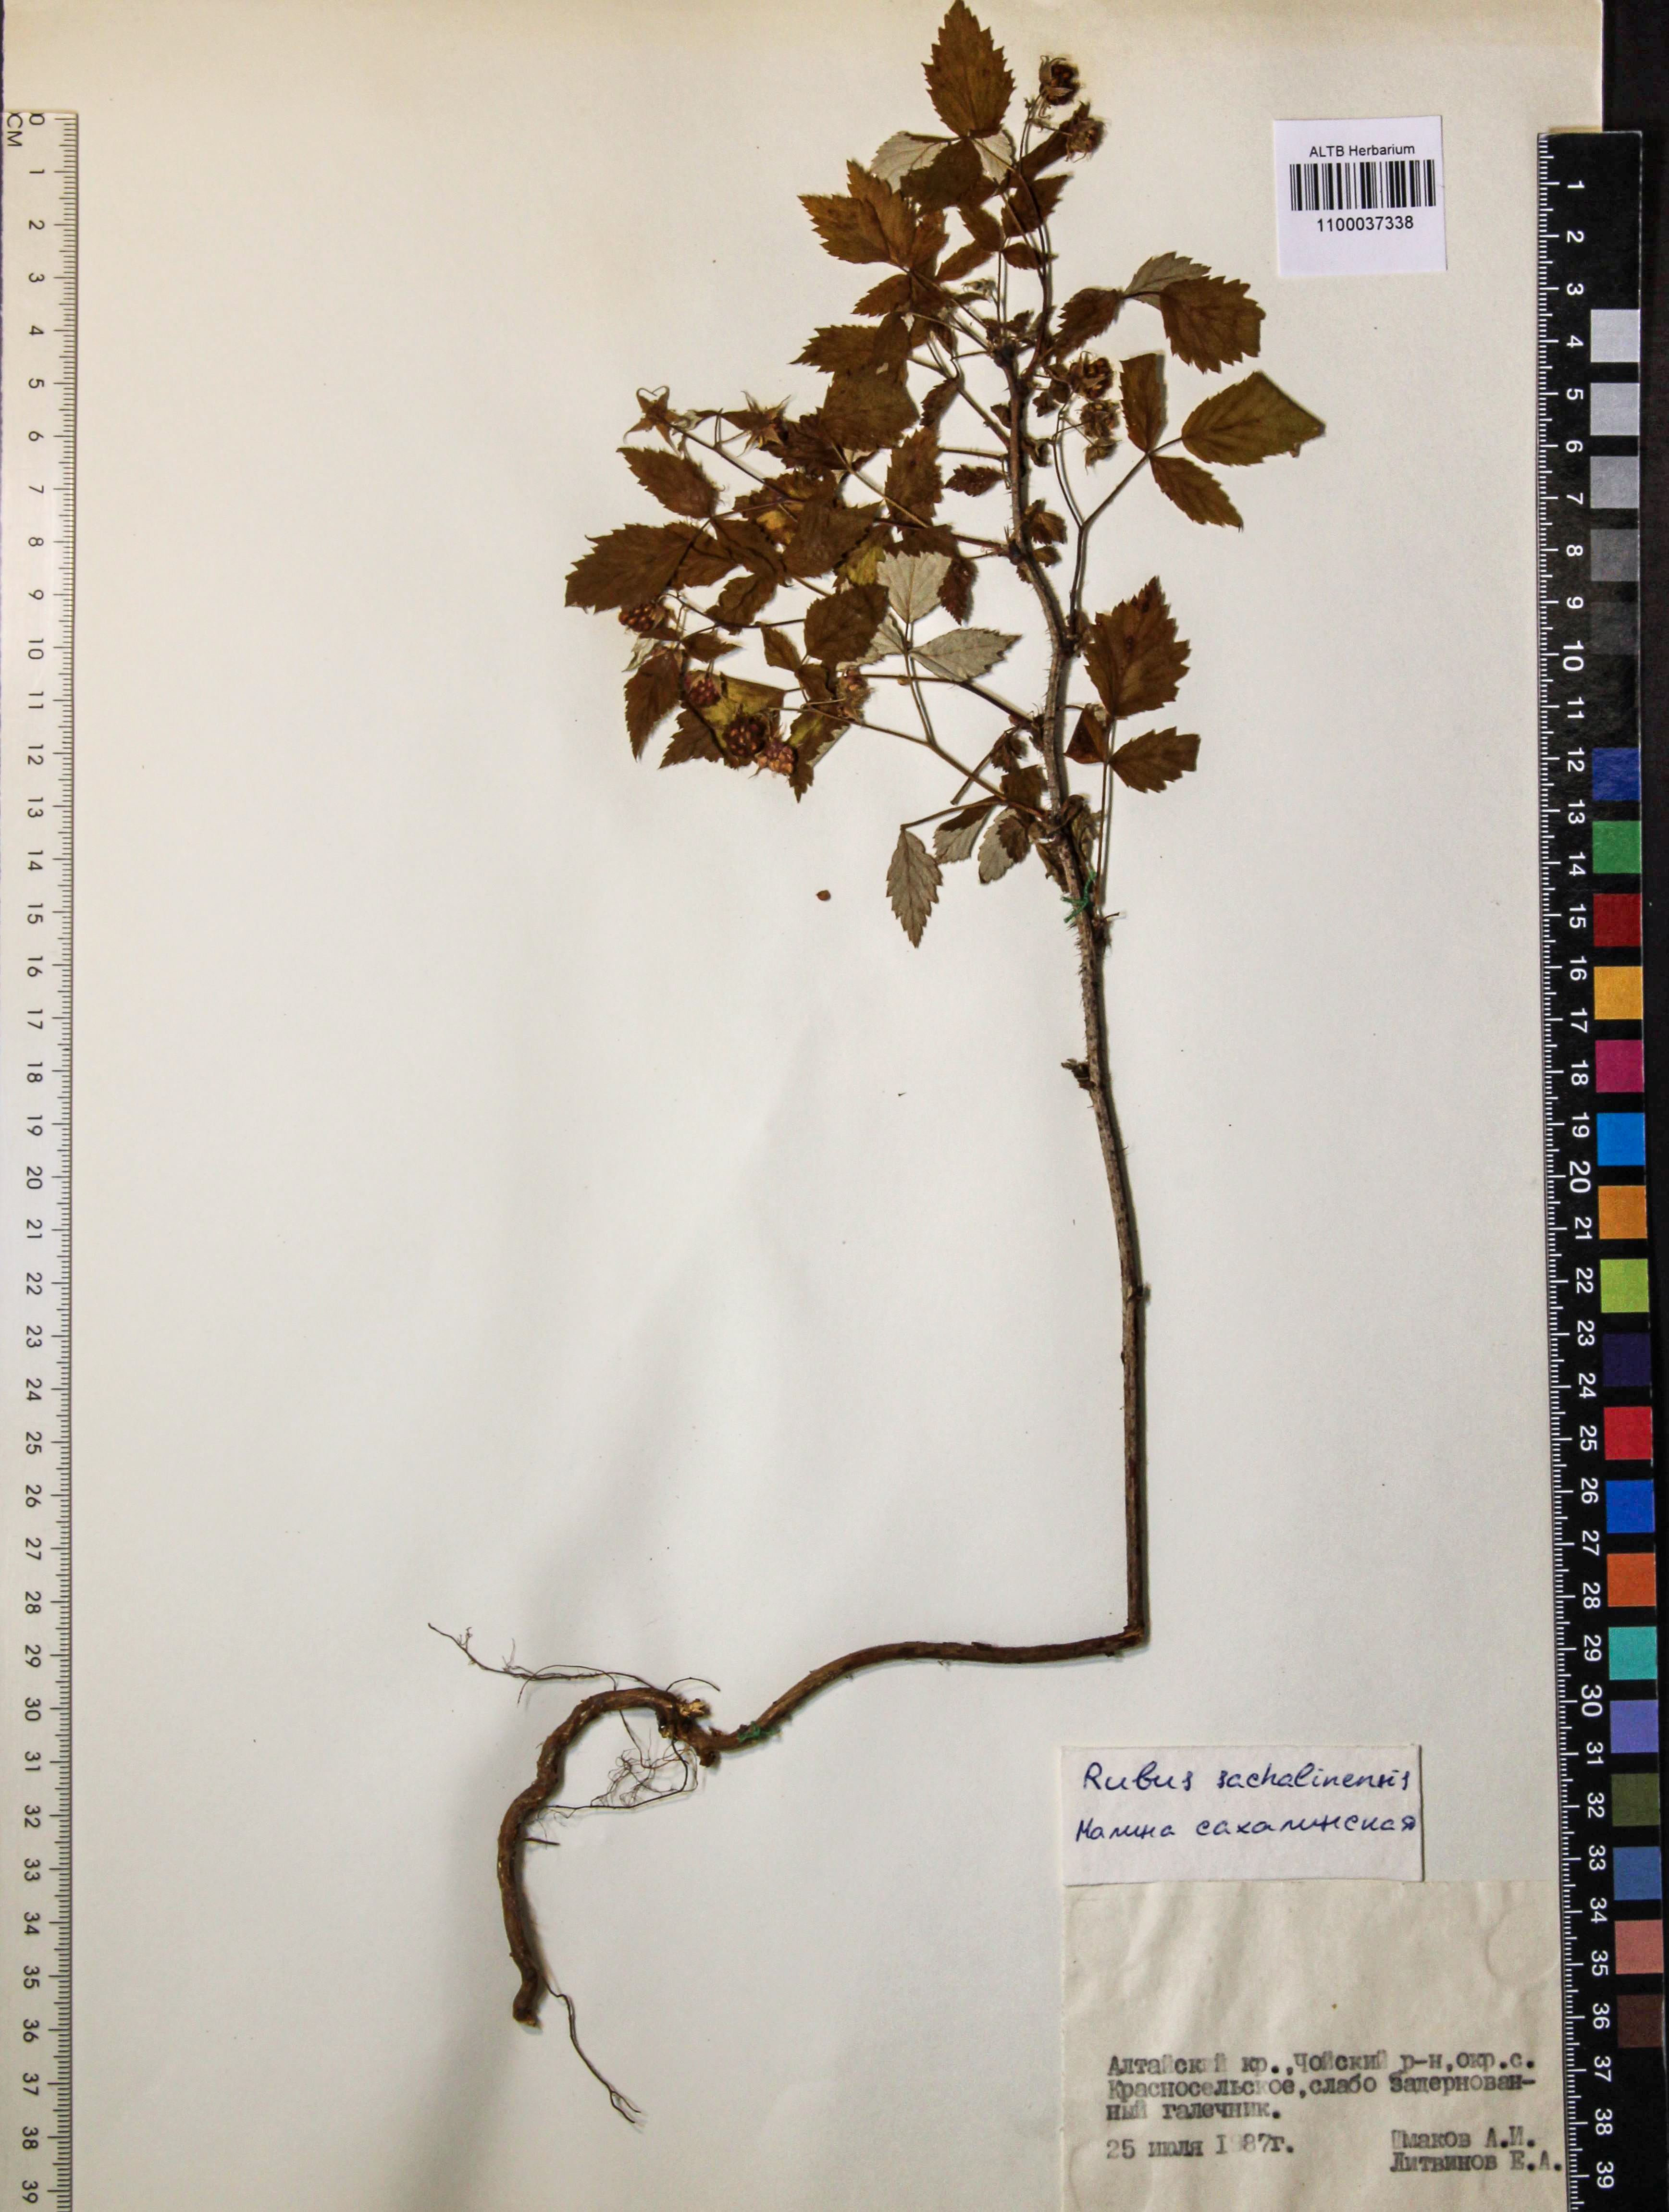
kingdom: Plantae
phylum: Tracheophyta
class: Magnoliopsida
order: Rosales
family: Rosaceae
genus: Rubus
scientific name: Rubus sachalinensis
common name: Red raspberry
